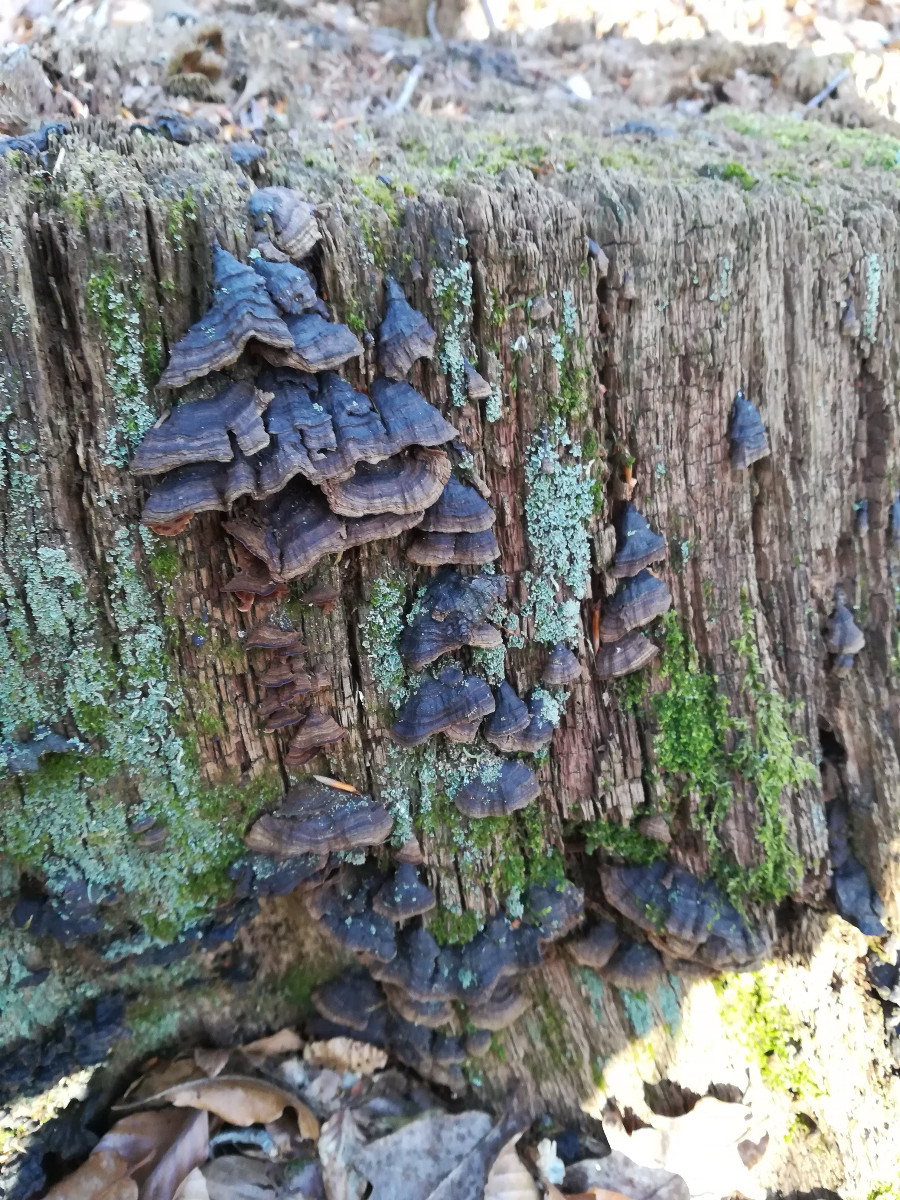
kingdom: Fungi
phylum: Basidiomycota
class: Agaricomycetes
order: Hymenochaetales
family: Hymenochaetaceae
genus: Hymenochaete
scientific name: Hymenochaete rubiginosa
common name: stiv ruslædersvamp
